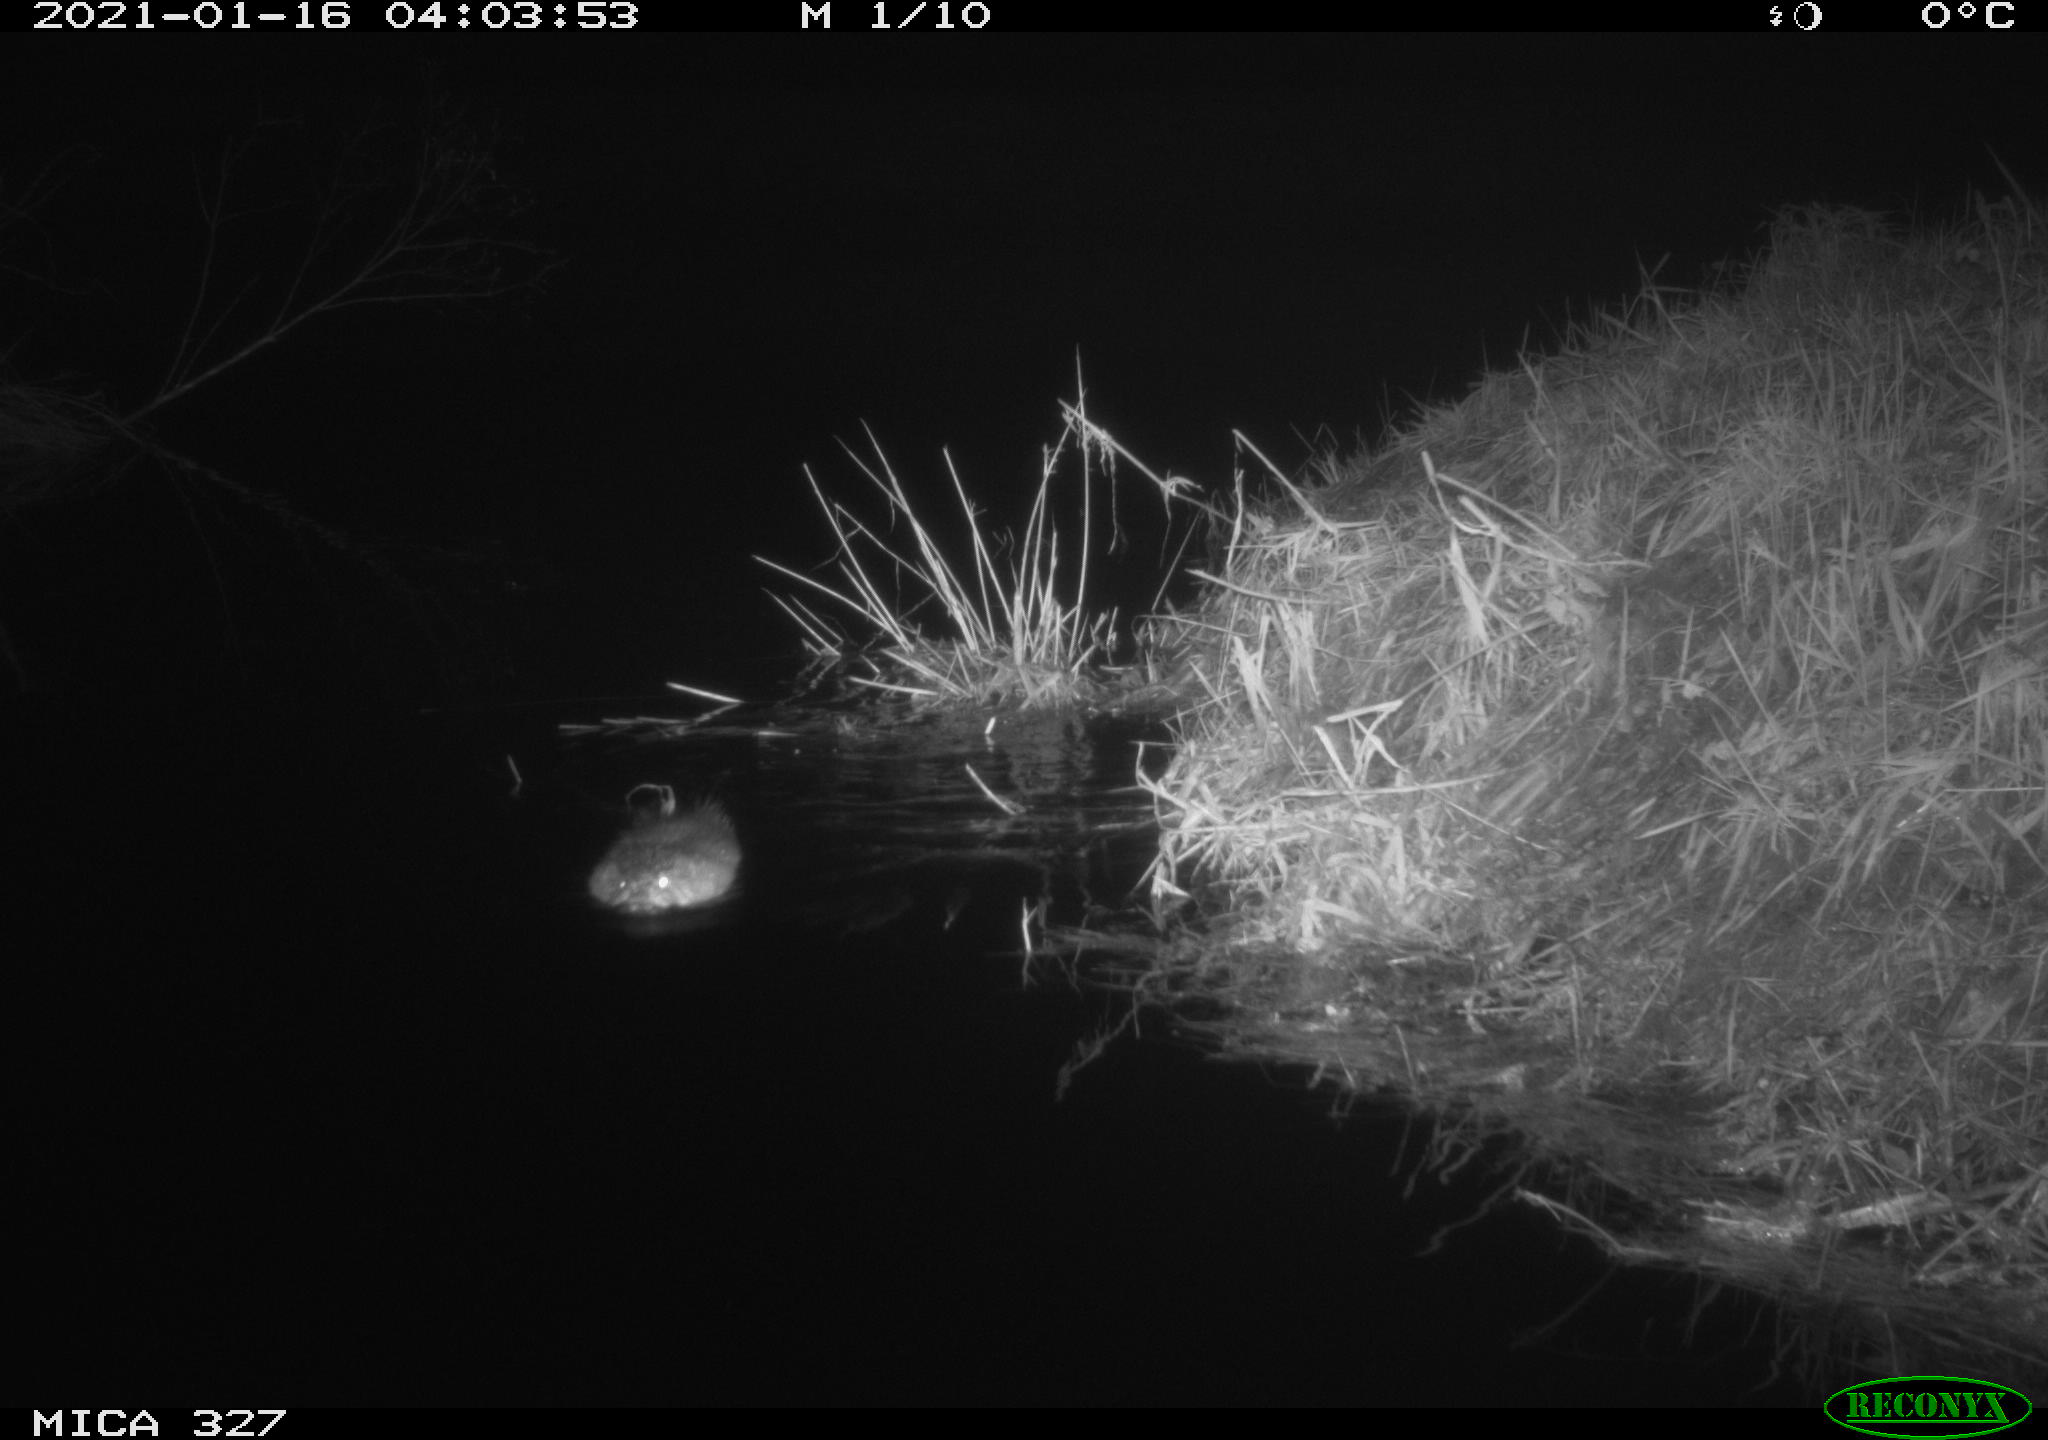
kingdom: Animalia
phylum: Chordata
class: Mammalia
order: Rodentia
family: Cricetidae
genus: Ondatra
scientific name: Ondatra zibethicus
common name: Muskrat
